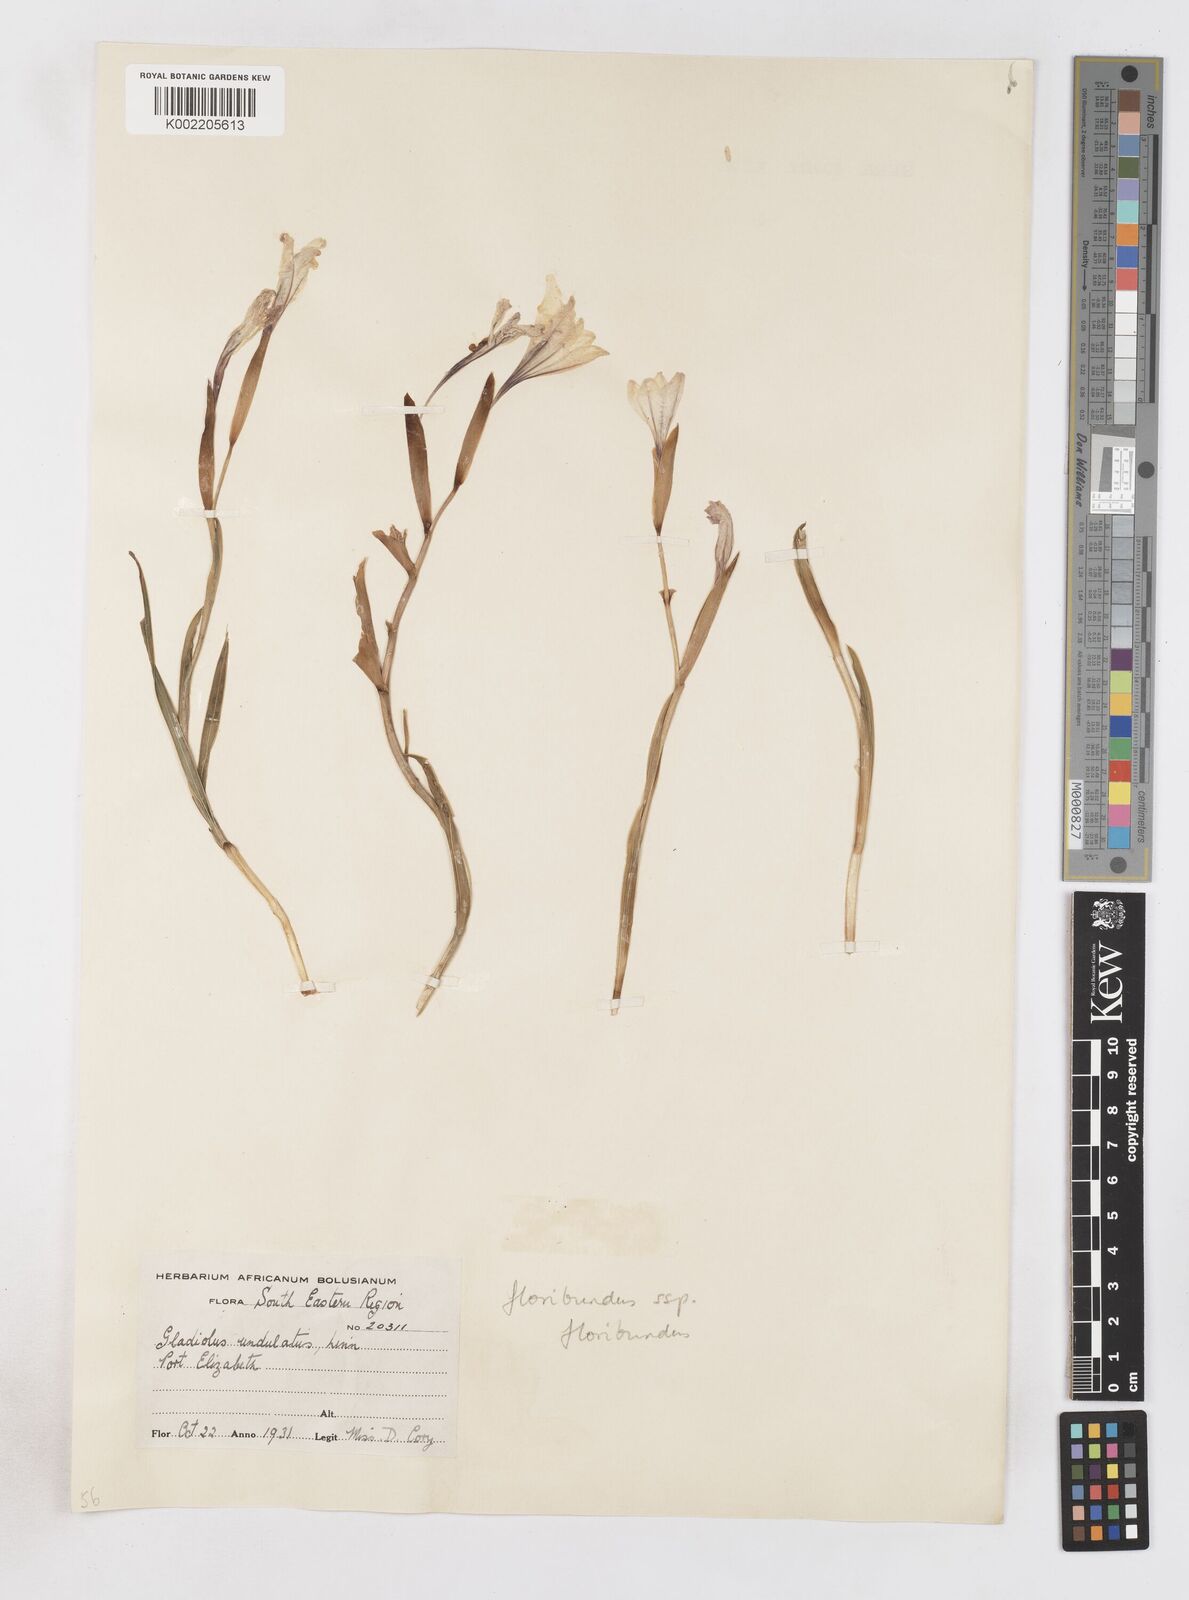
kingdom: Plantae
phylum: Tracheophyta
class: Liliopsida
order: Asparagales
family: Iridaceae
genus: Gladiolus
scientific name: Gladiolus floribundus
